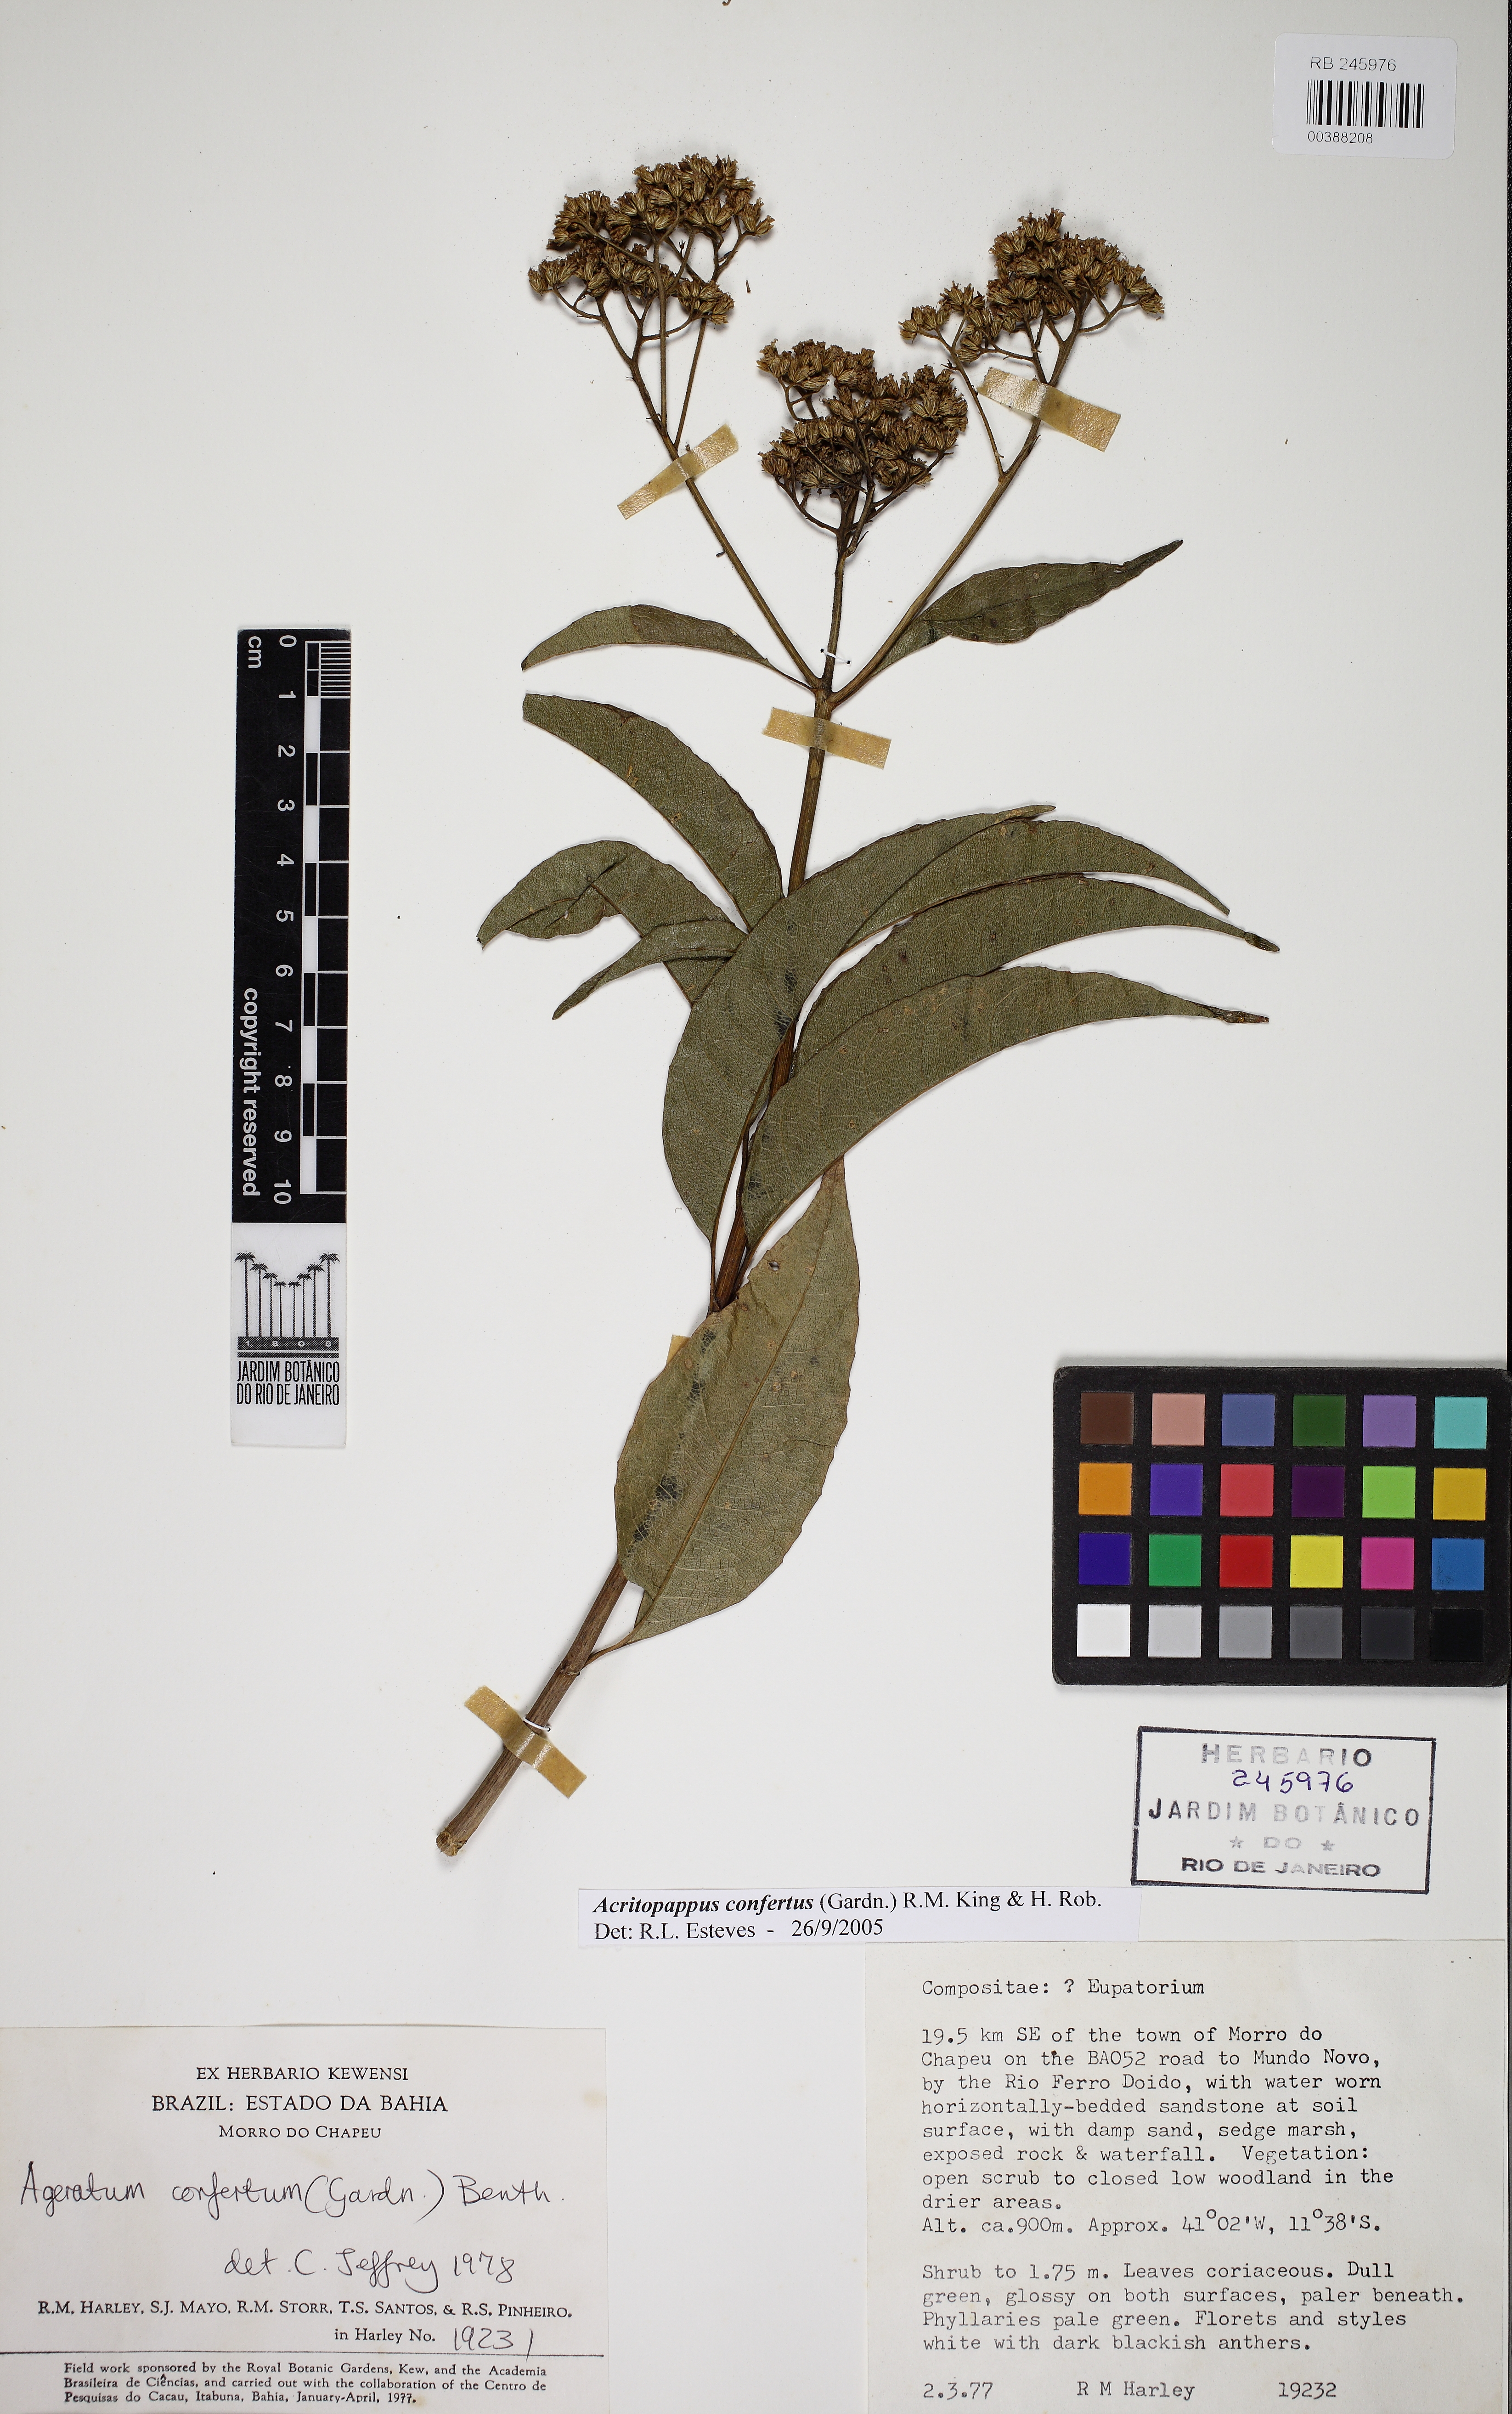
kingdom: Plantae
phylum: Tracheophyta
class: Magnoliopsida
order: Asterales
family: Asteraceae
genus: Acritopappus
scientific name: Acritopappus confertus
